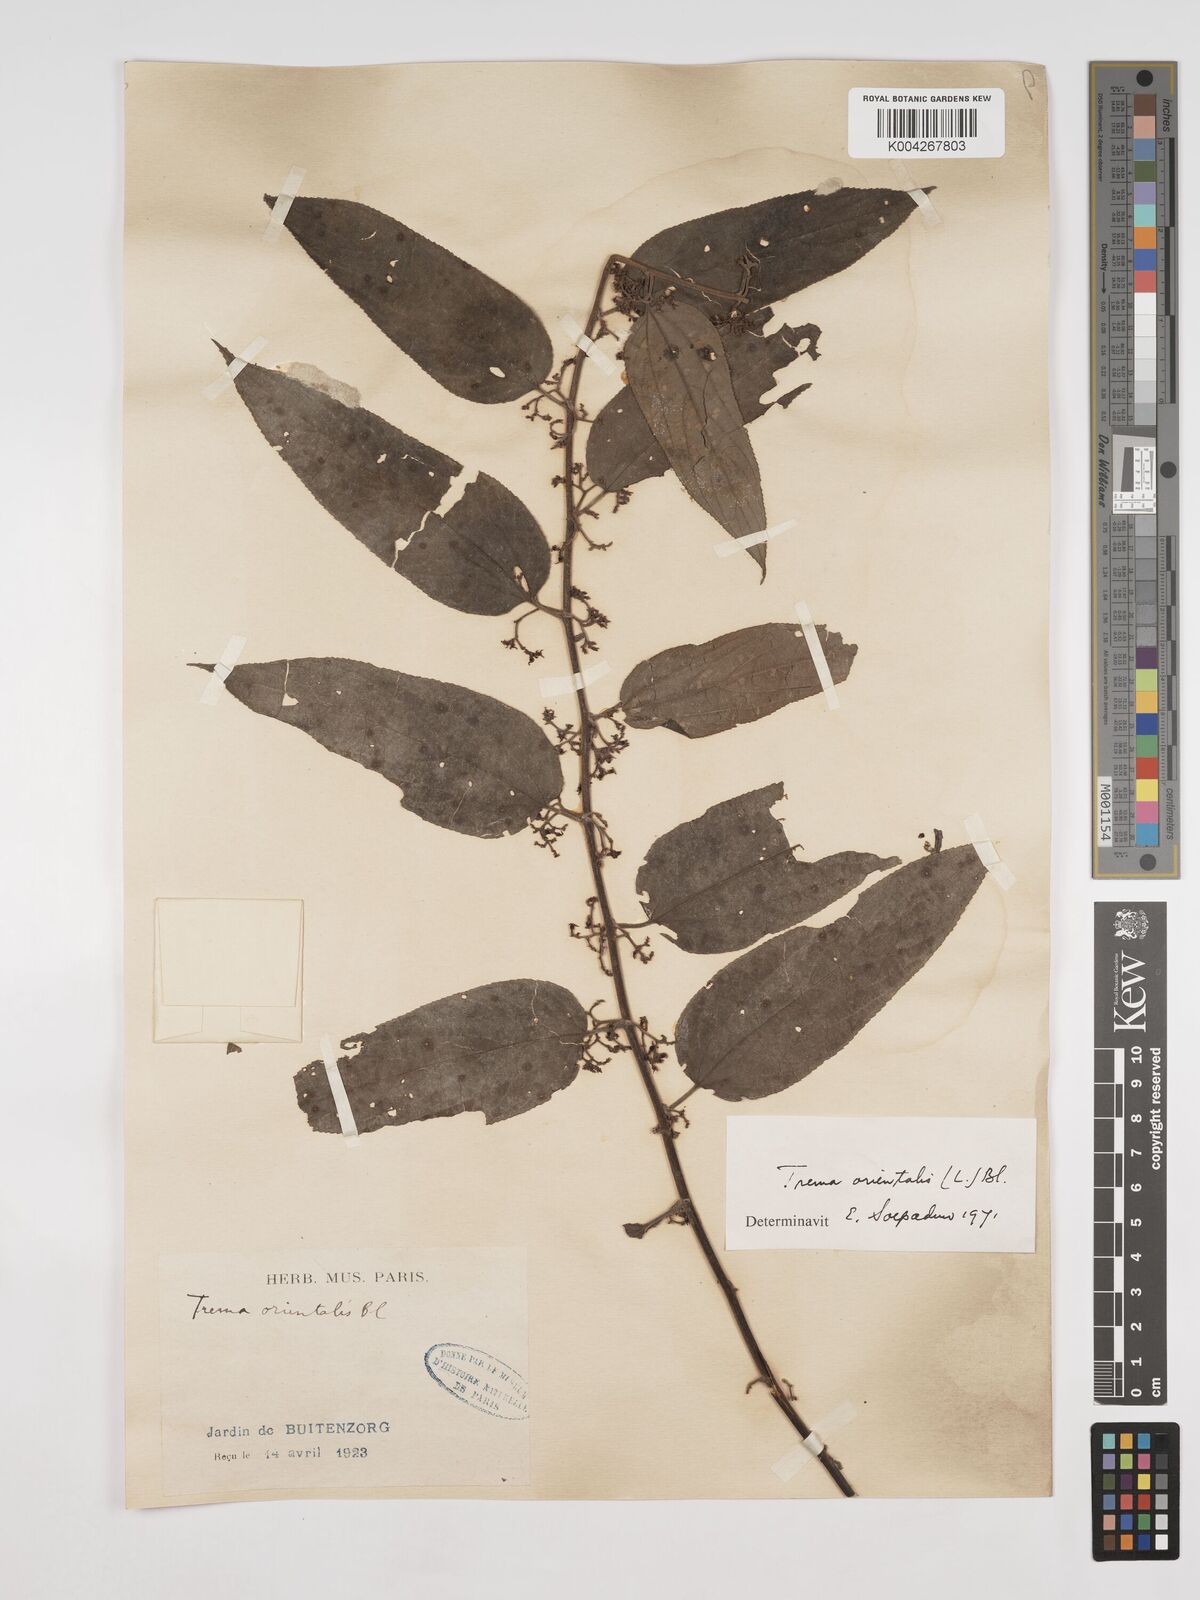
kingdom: Plantae
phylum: Tracheophyta
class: Magnoliopsida
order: Rosales
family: Cannabaceae
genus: Trema
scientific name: Trema orientale
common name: Indian charcoal tree
